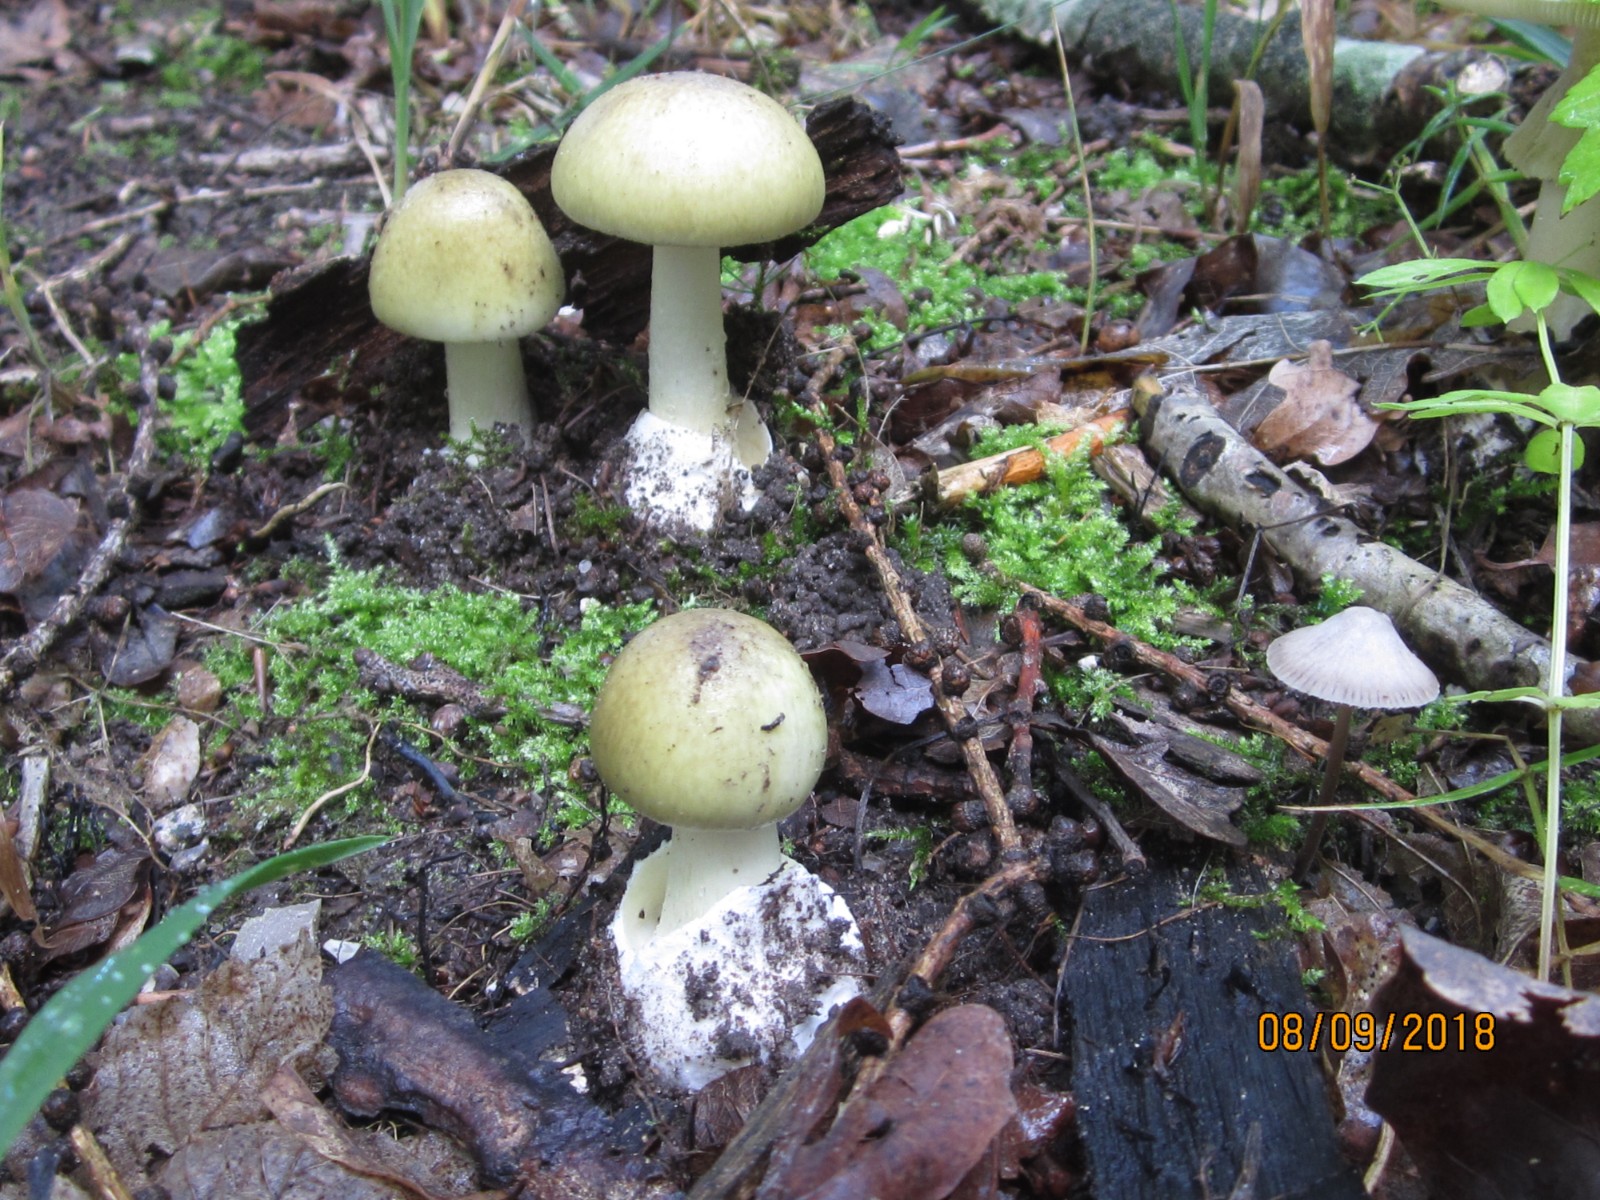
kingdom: Fungi
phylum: Basidiomycota
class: Agaricomycetes
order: Agaricales
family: Amanitaceae
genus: Amanita
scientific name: Amanita phalloides
